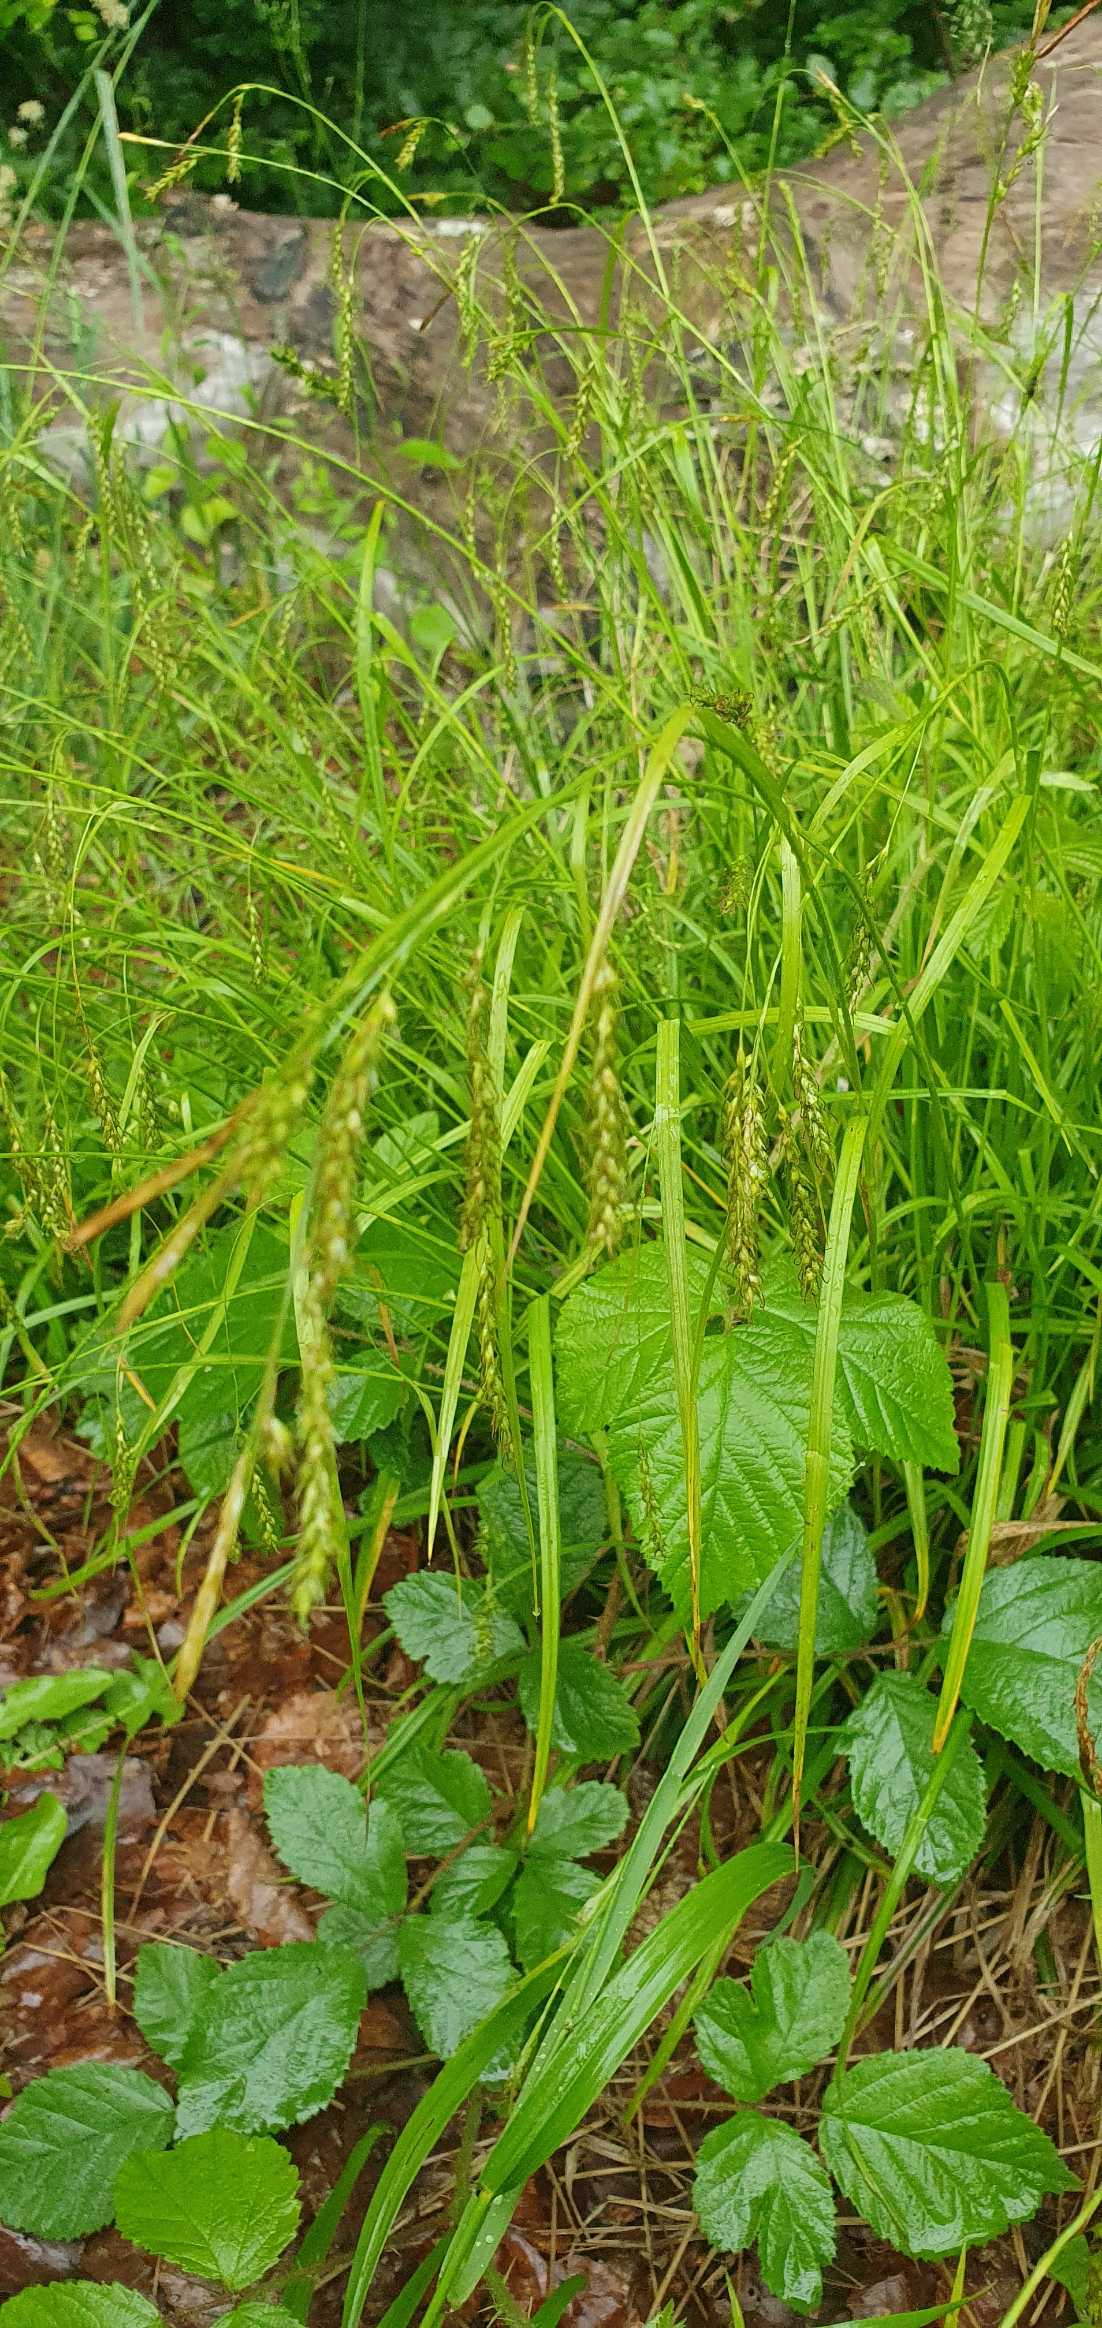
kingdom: Plantae
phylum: Tracheophyta
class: Liliopsida
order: Poales
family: Cyperaceae
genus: Carex
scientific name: Carex sylvatica
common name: Skov-star
